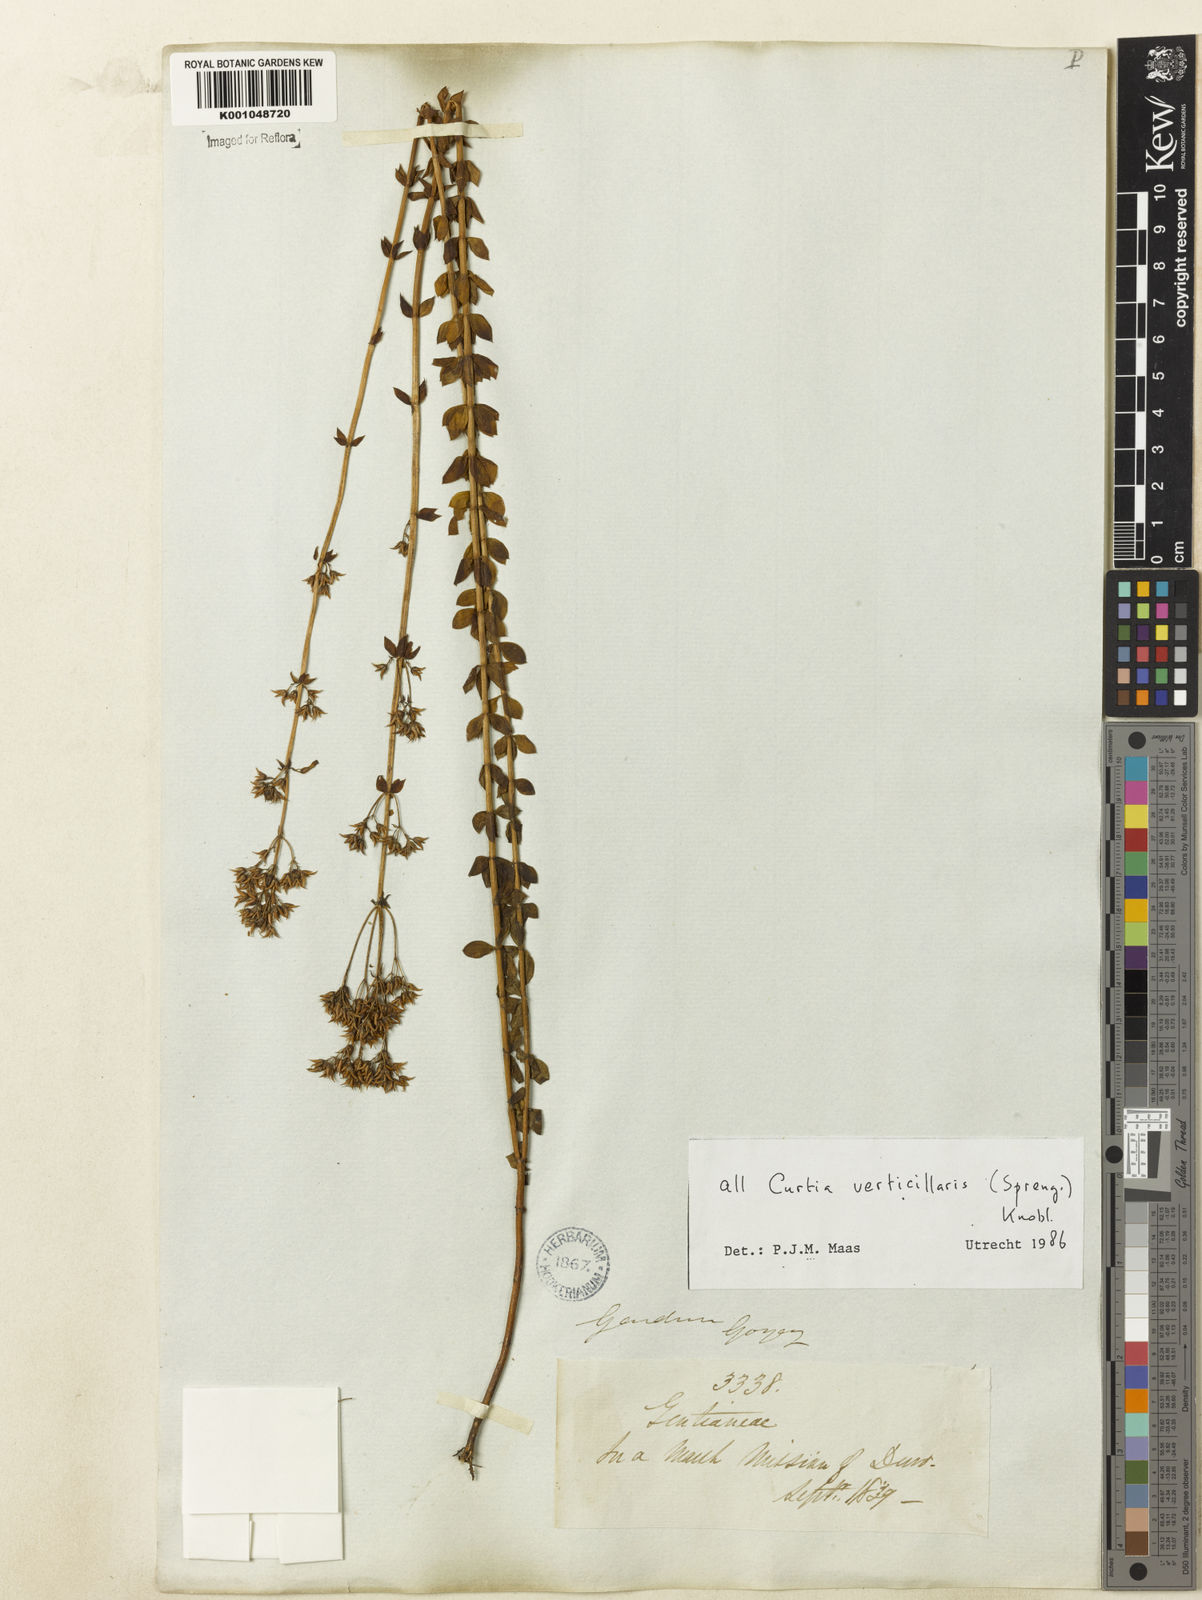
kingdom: Plantae
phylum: Tracheophyta
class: Magnoliopsida
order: Gentianales
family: Gentianaceae
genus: Curtia
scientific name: Curtia verticillaris
